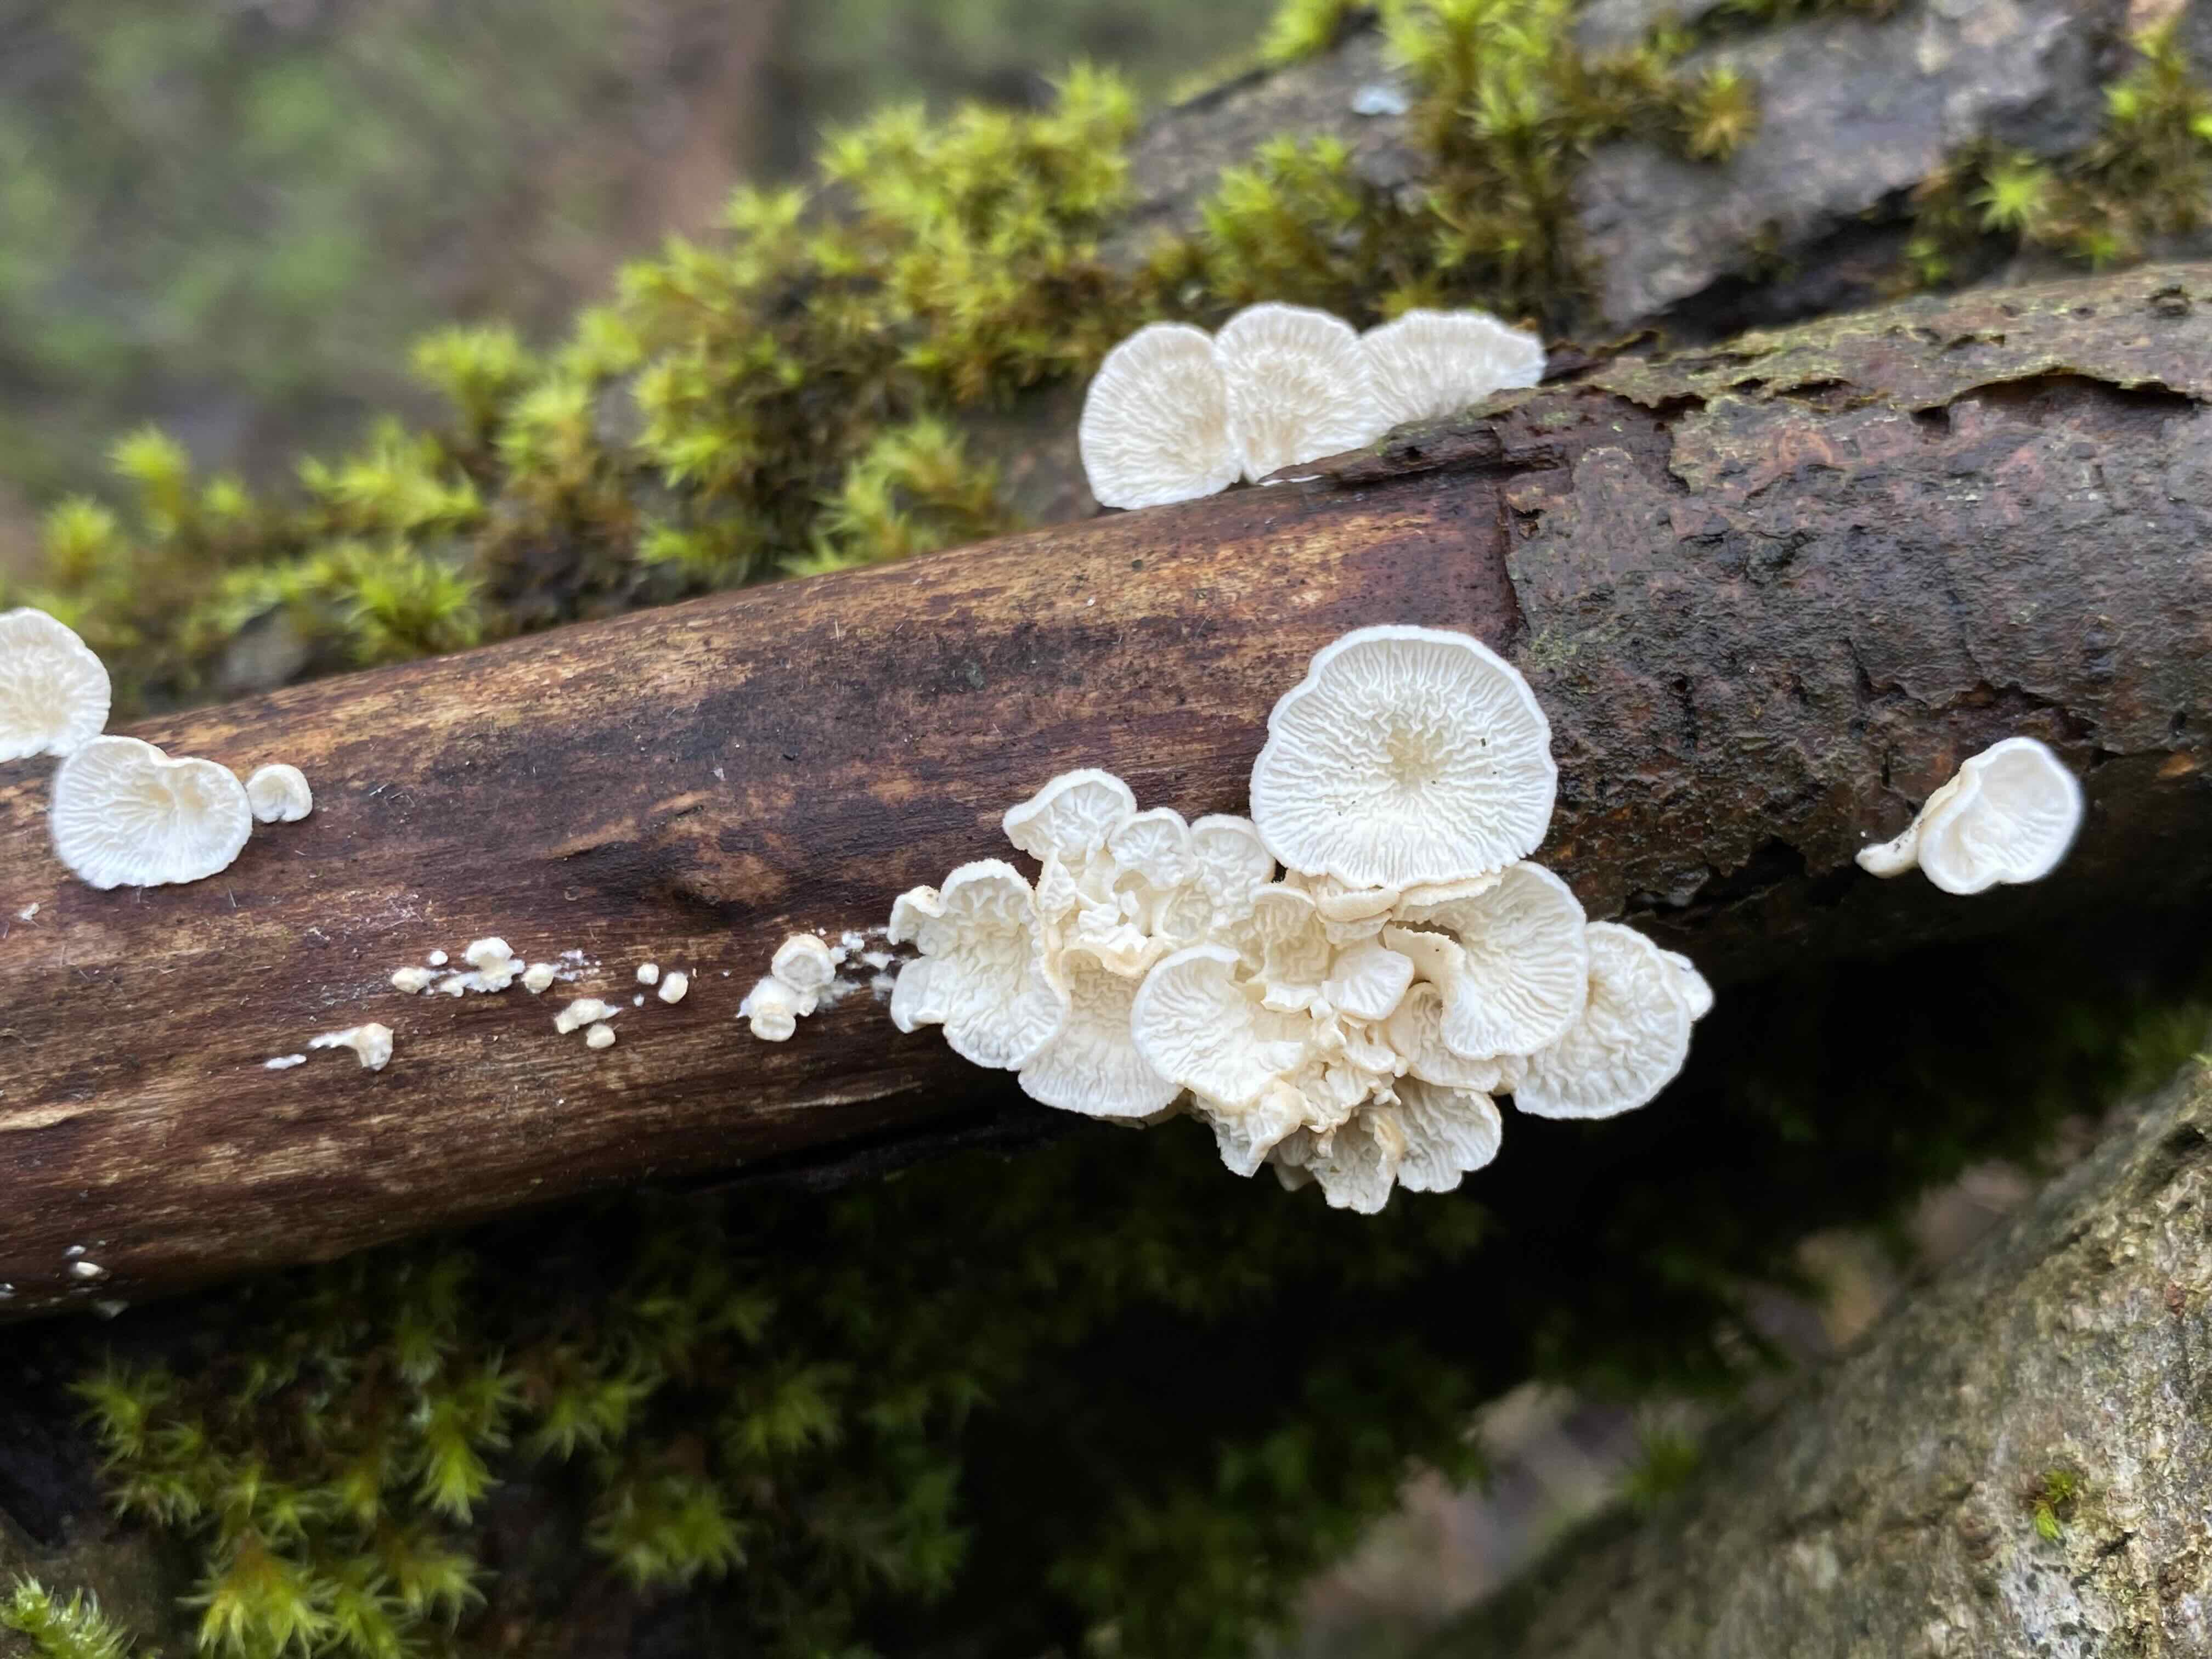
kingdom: Fungi
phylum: Basidiomycota
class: Agaricomycetes
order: Amylocorticiales
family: Amylocorticiaceae
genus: Plicaturopsis
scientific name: Plicaturopsis crispa
